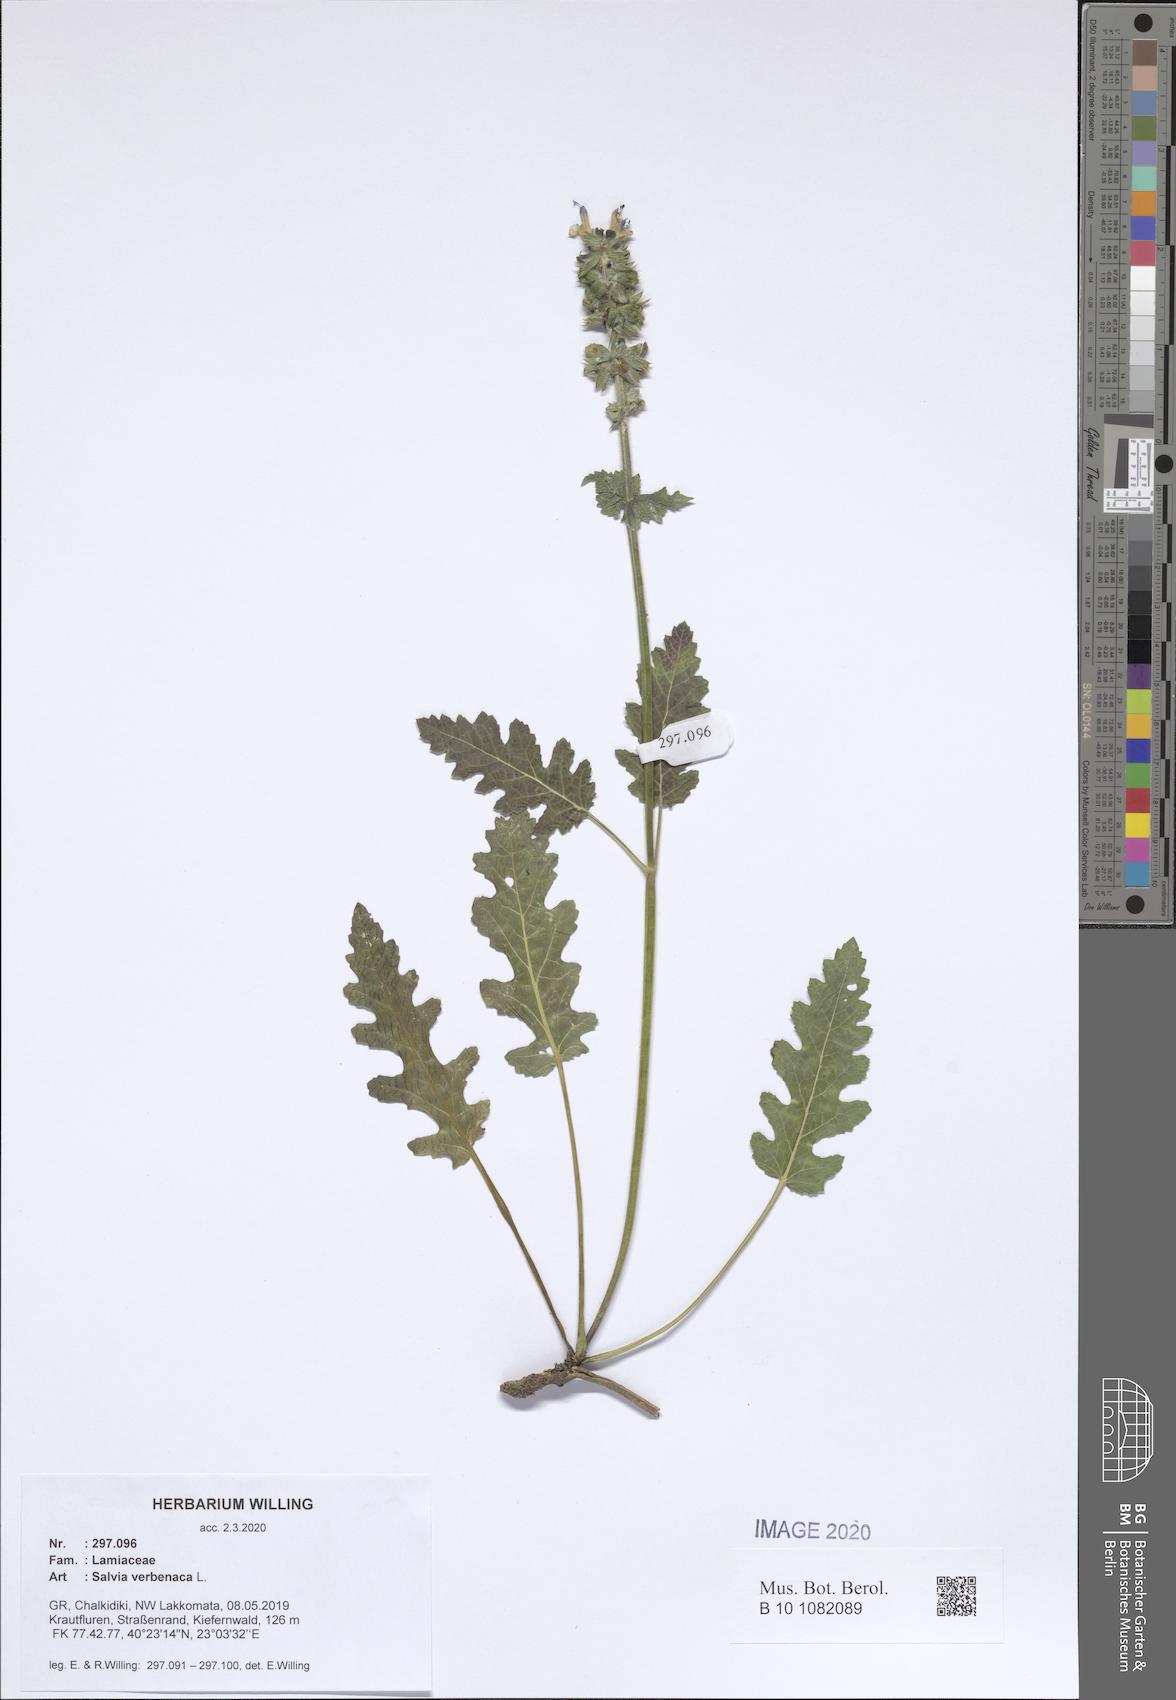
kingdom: Plantae
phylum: Tracheophyta
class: Magnoliopsida
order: Lamiales
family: Lamiaceae
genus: Salvia
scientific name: Salvia verbenaca
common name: Wild clary
